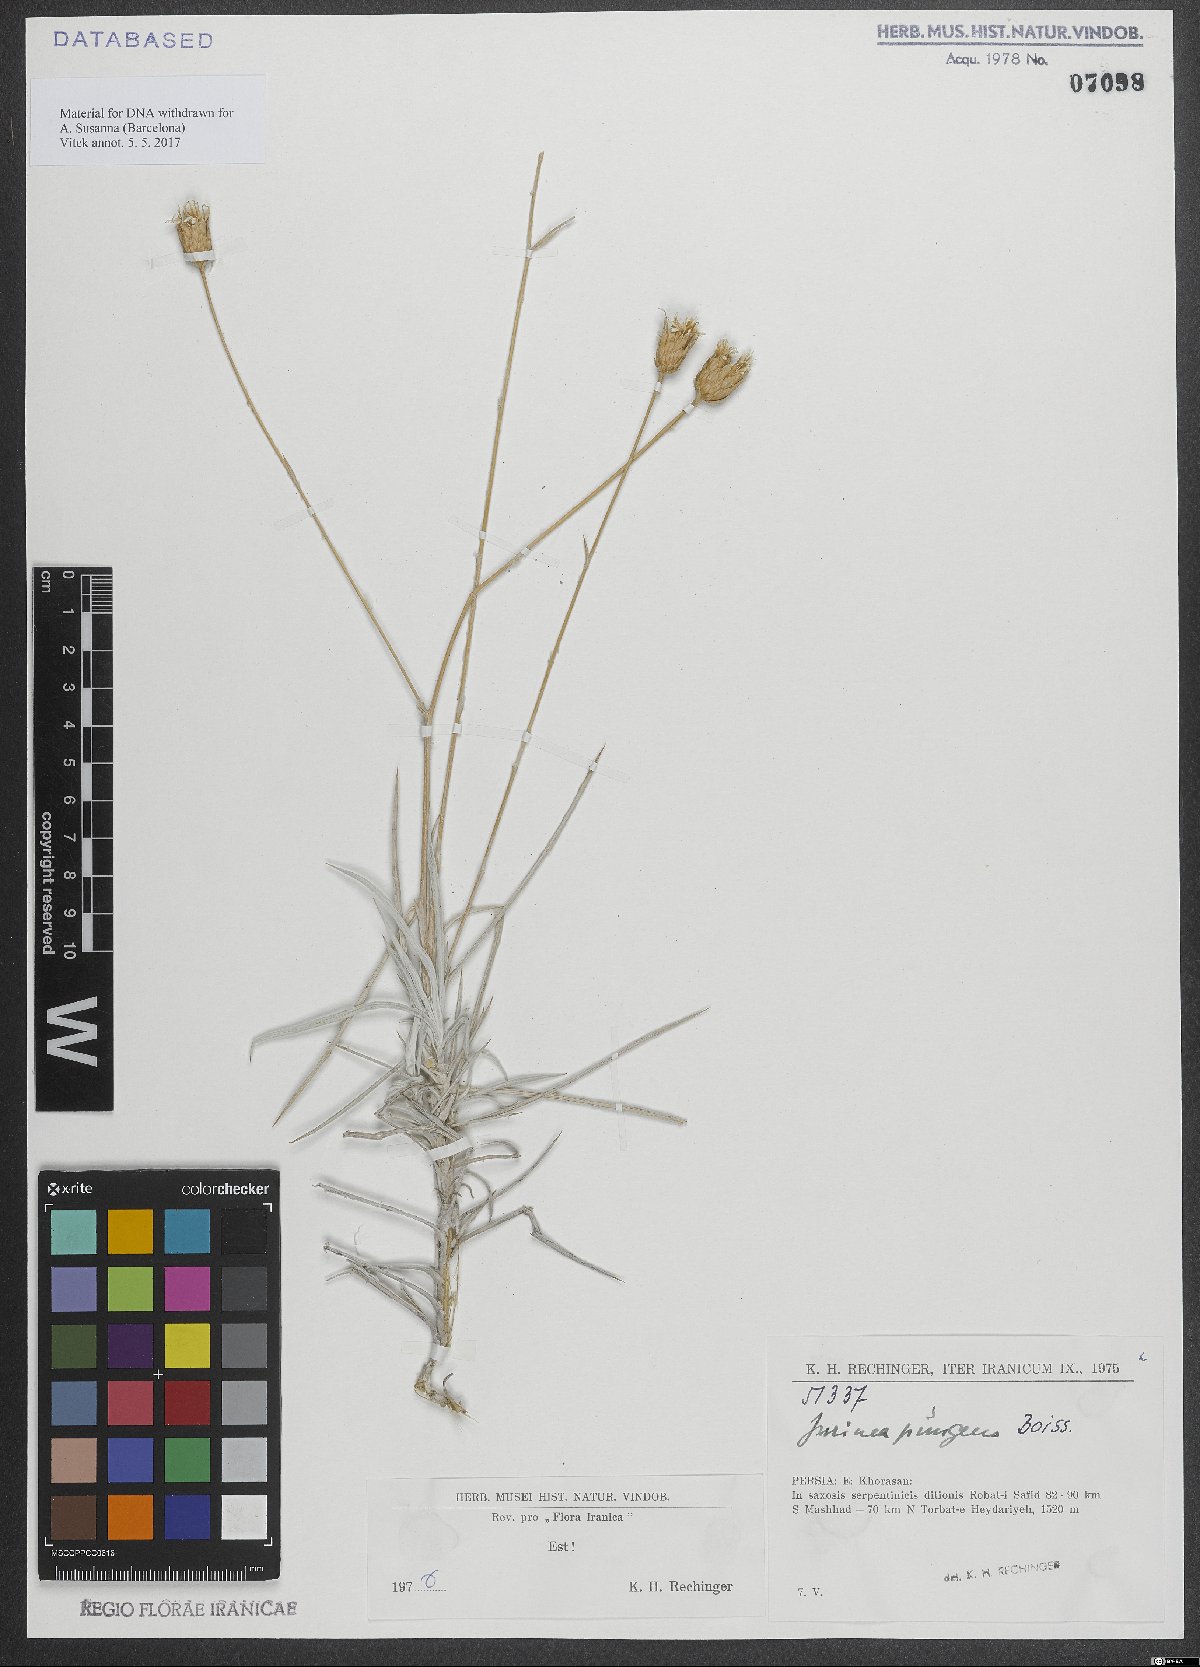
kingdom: Plantae
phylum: Tracheophyta
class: Magnoliopsida
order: Asterales
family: Asteraceae
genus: Cousinia
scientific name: Cousinia argentea
